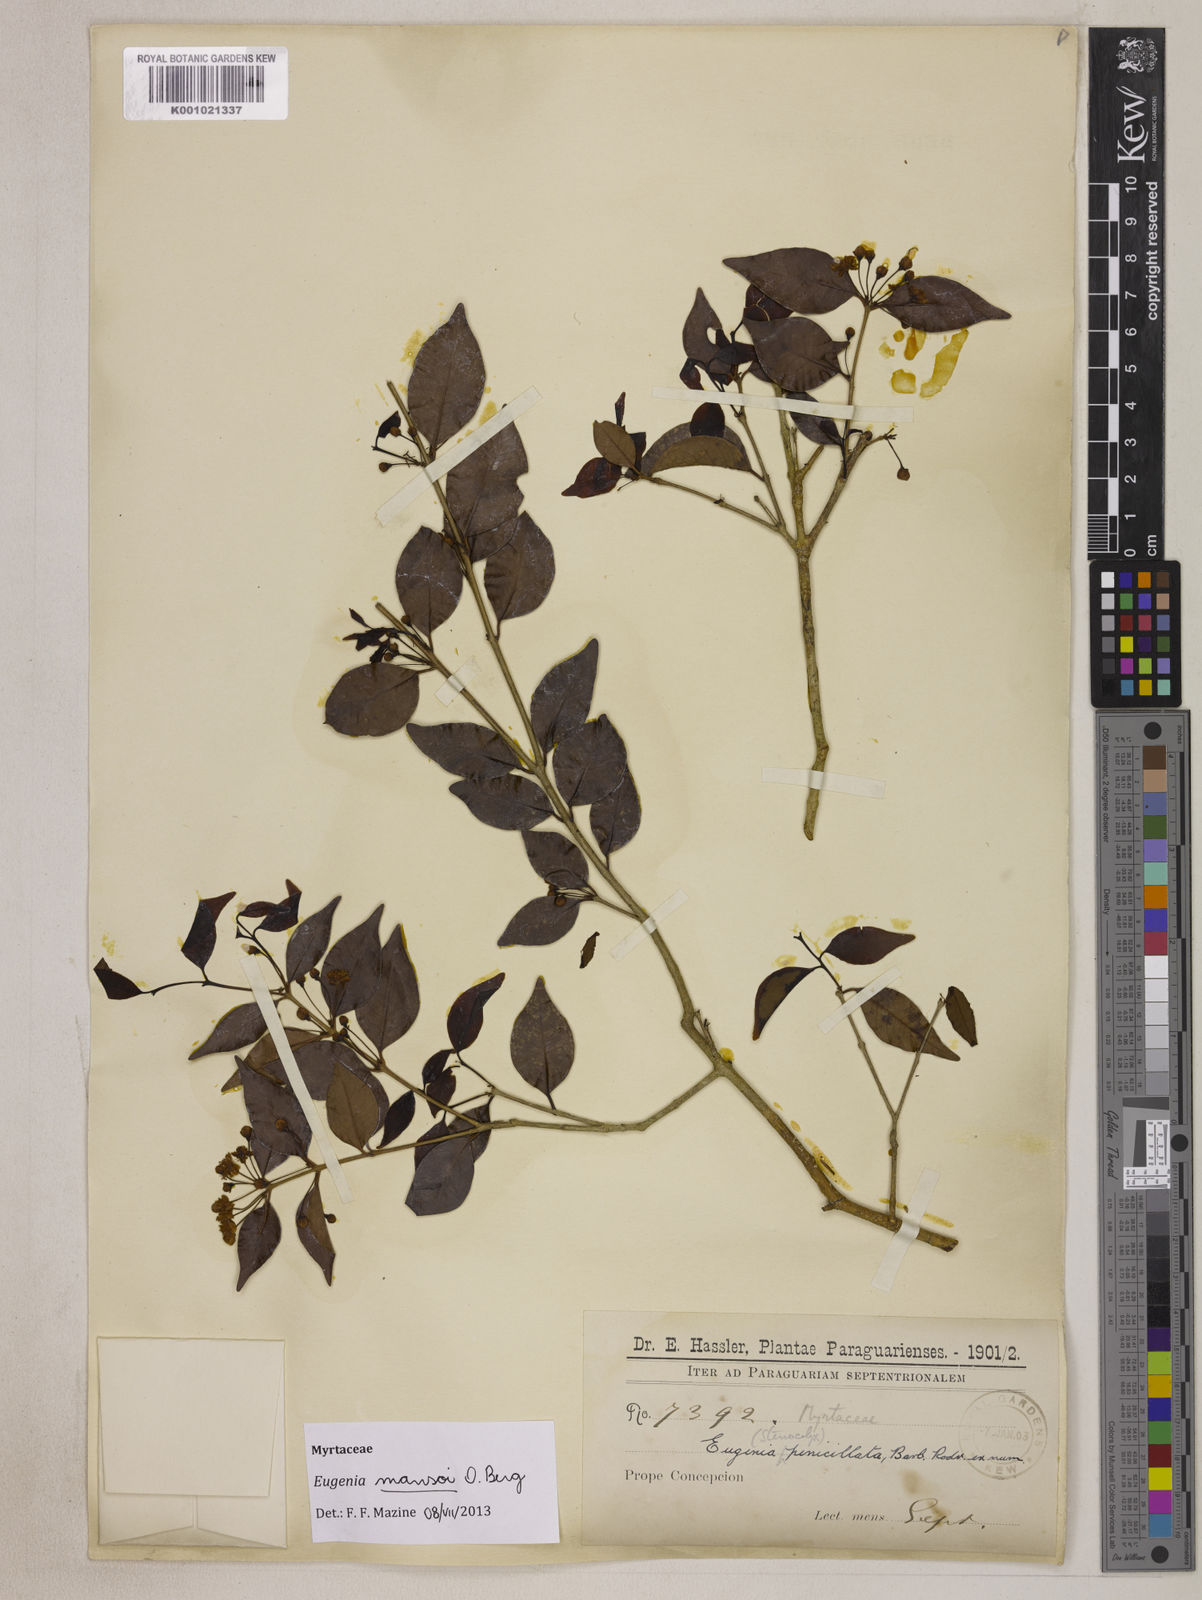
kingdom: Plantae
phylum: Tracheophyta
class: Magnoliopsida
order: Myrtales
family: Myrtaceae
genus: Eugenia
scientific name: Eugenia mansoi
